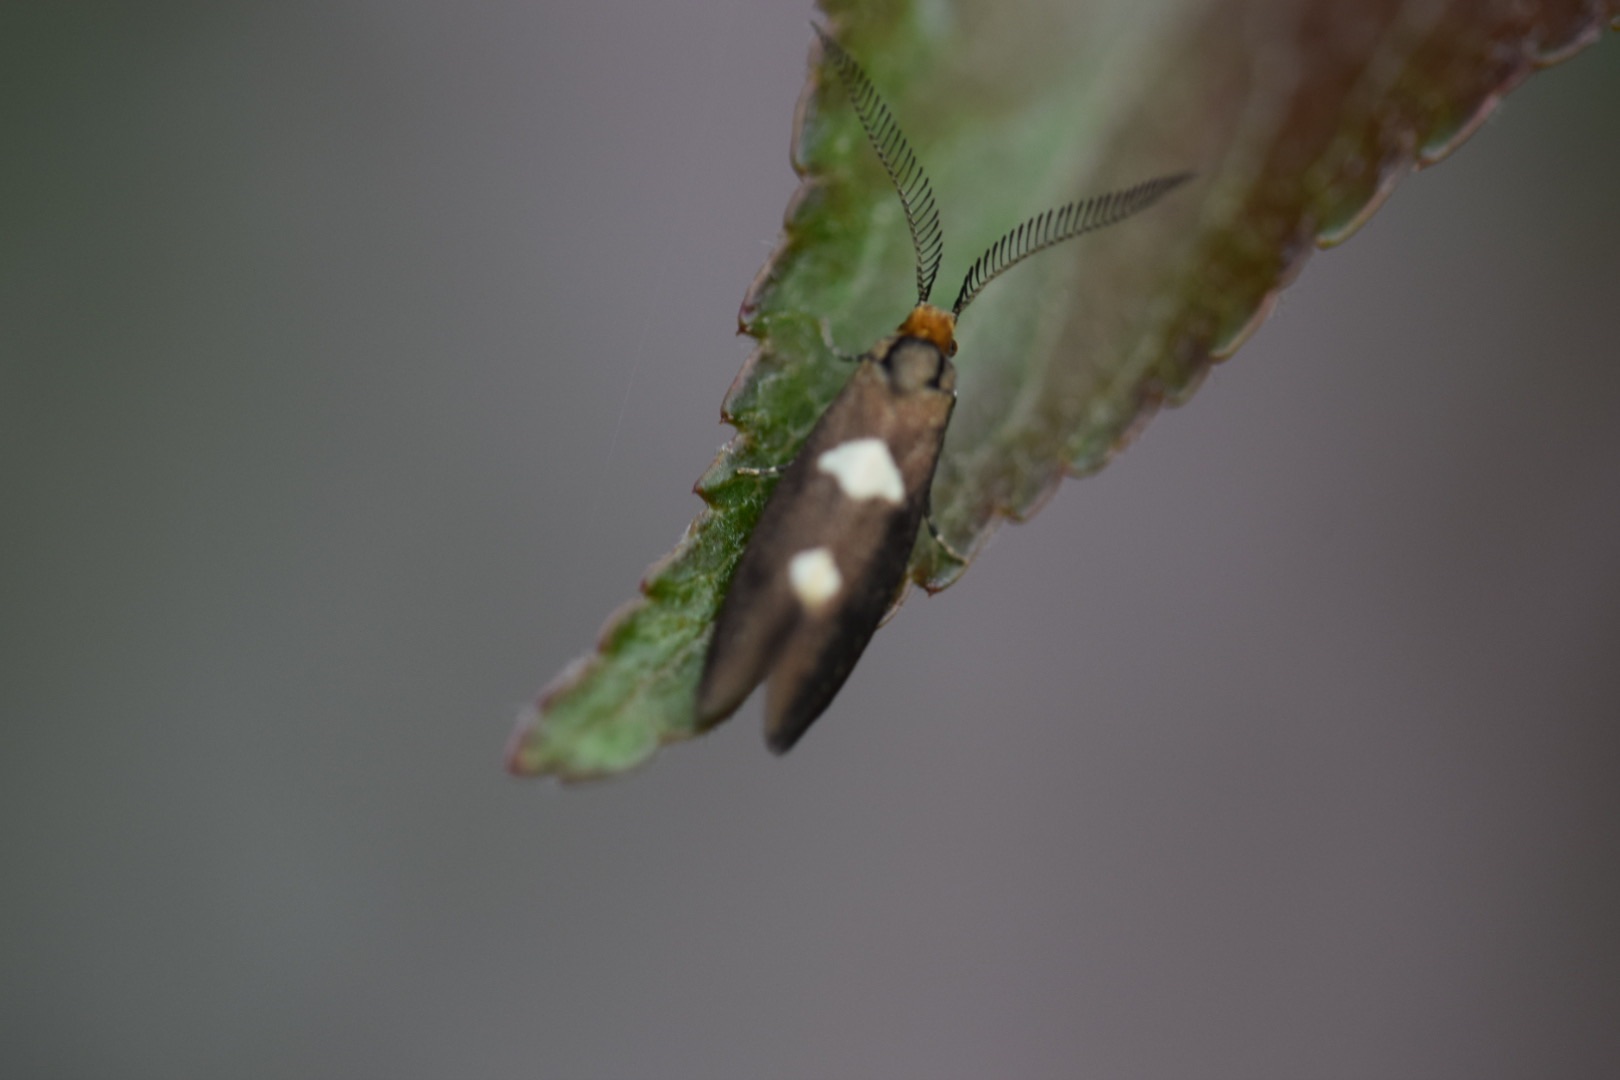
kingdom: Animalia
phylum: Arthropoda
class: Insecta
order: Lepidoptera
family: Incurvariidae
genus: Incurvaria
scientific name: Incurvaria masculella
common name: Mørkt nøjsomt møl
